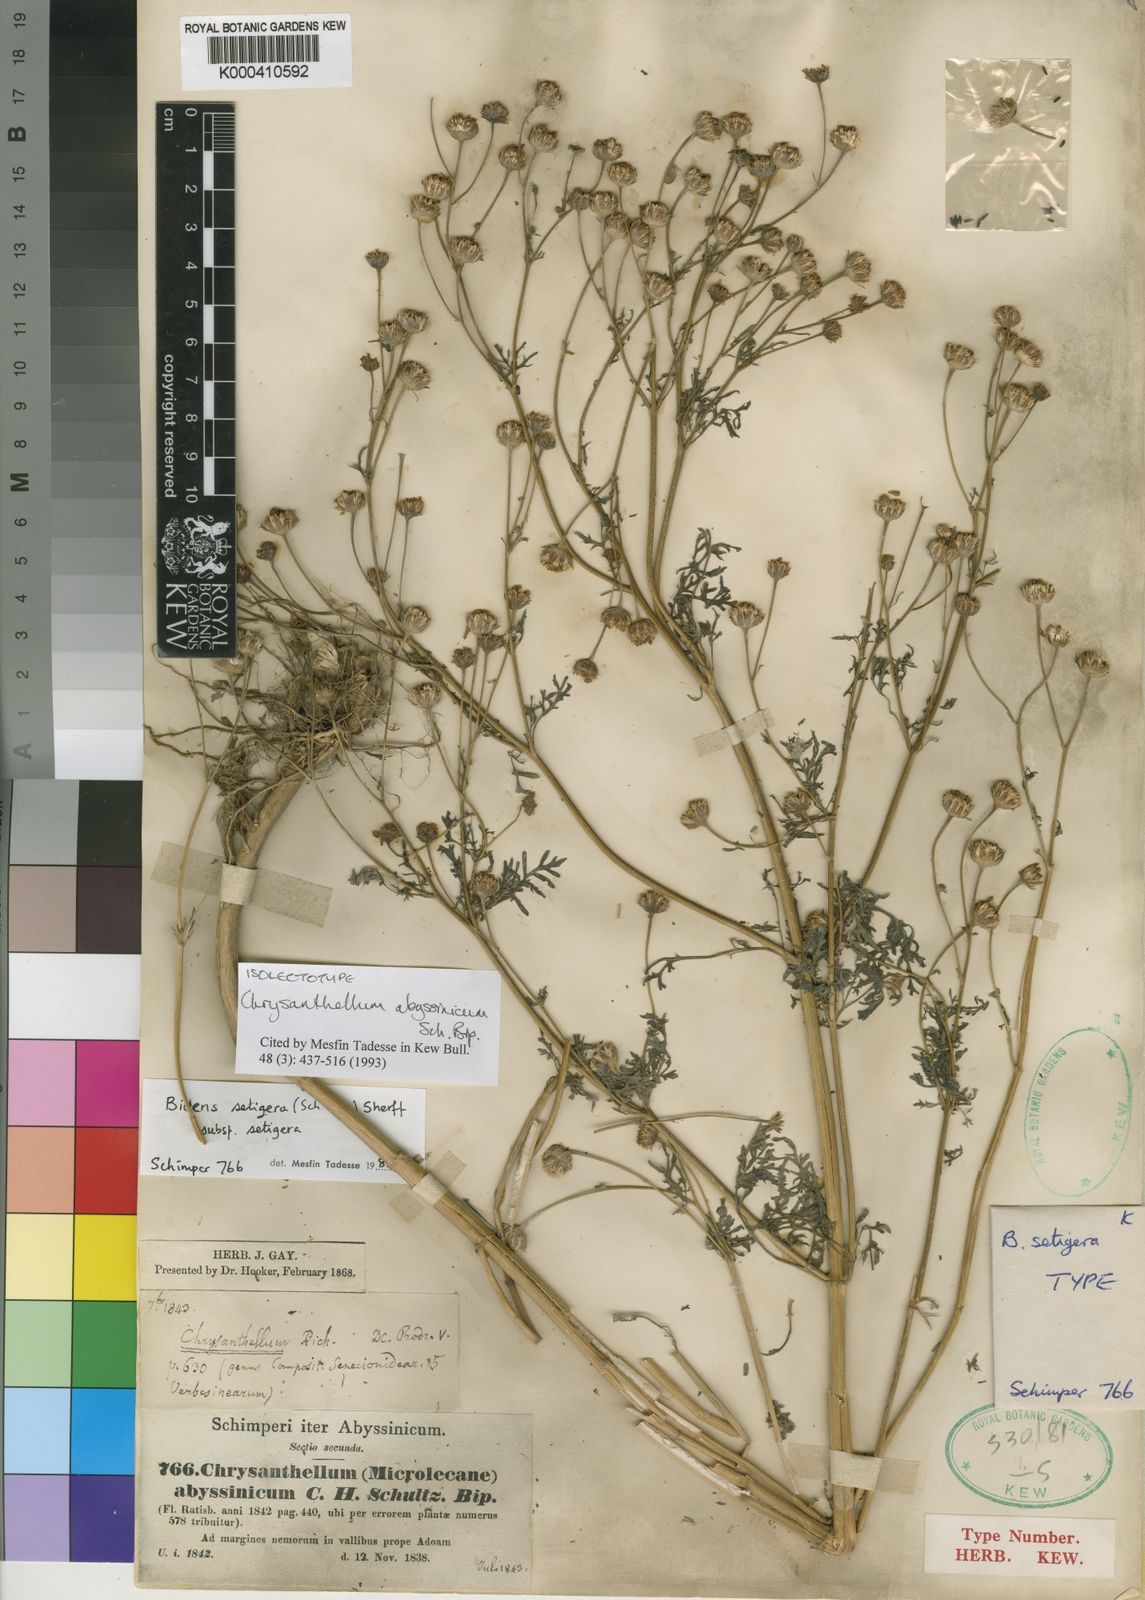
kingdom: Plantae
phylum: Tracheophyta
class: Magnoliopsida
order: Asterales
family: Asteraceae
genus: Bidens
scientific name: Bidens setigera
